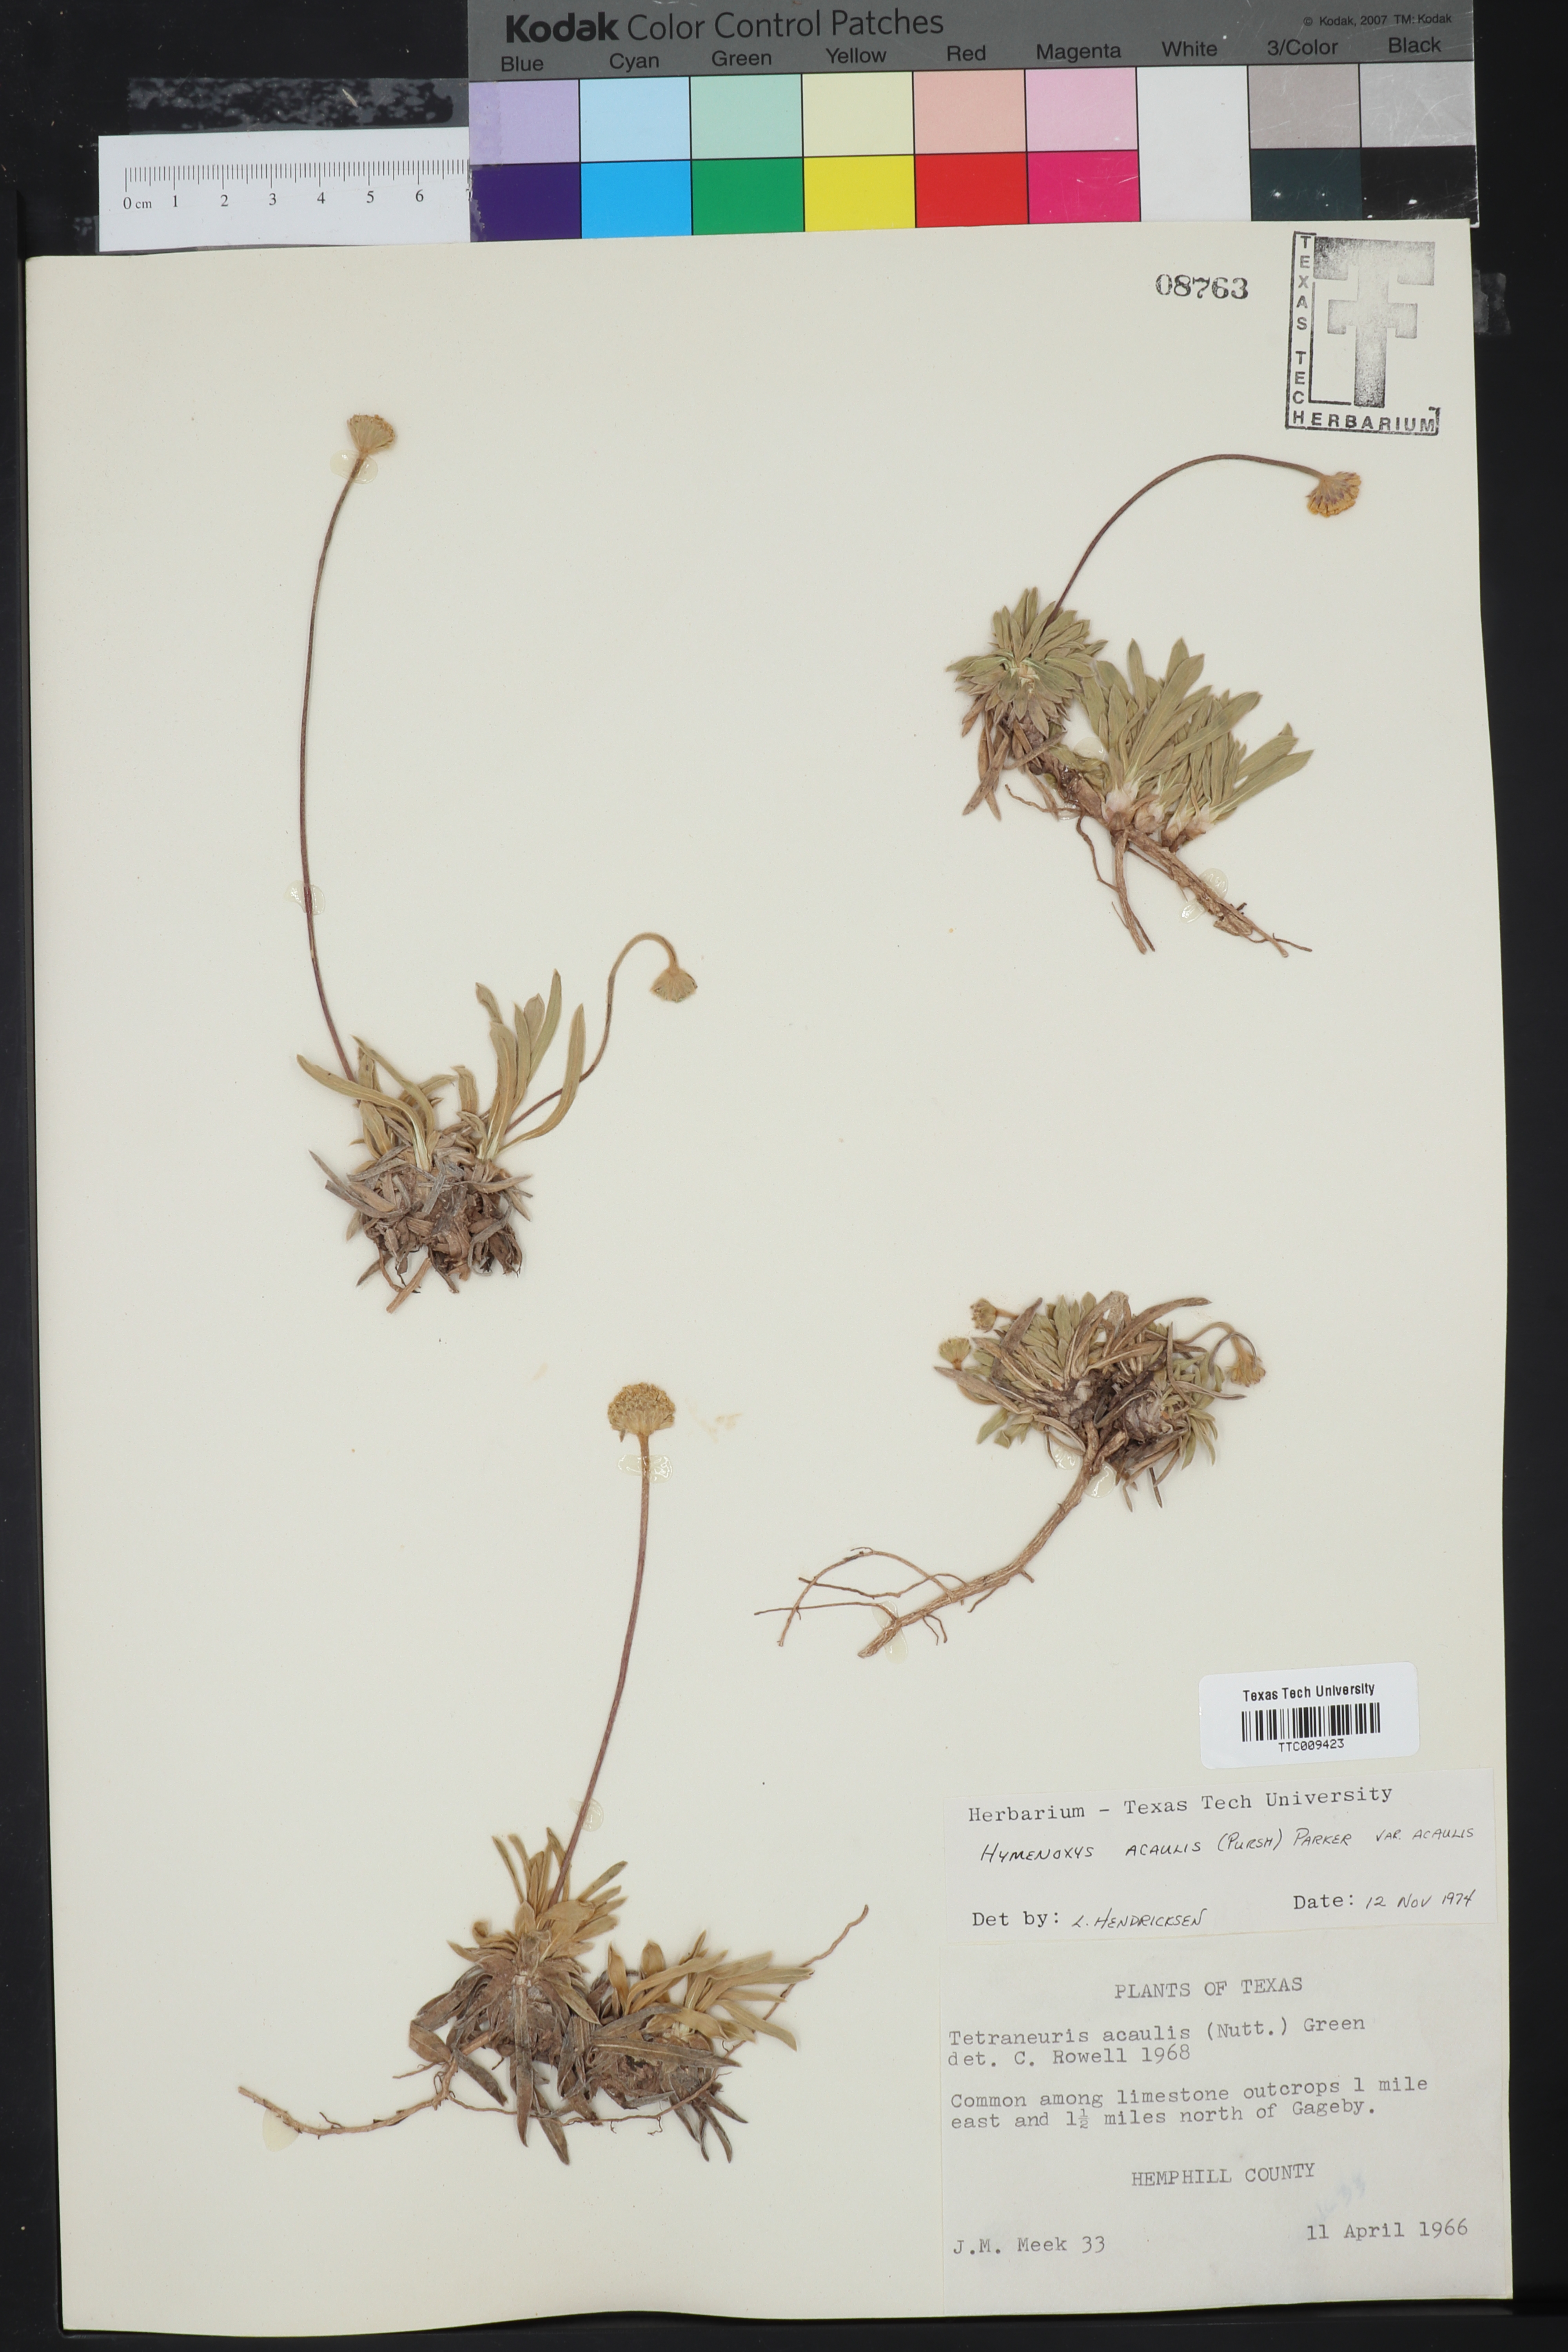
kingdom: Plantae
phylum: Tracheophyta
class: Magnoliopsida
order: Asterales
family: Asteraceae
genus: Tetraneuris
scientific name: Tetraneuris acaulis
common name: Butte marigold
